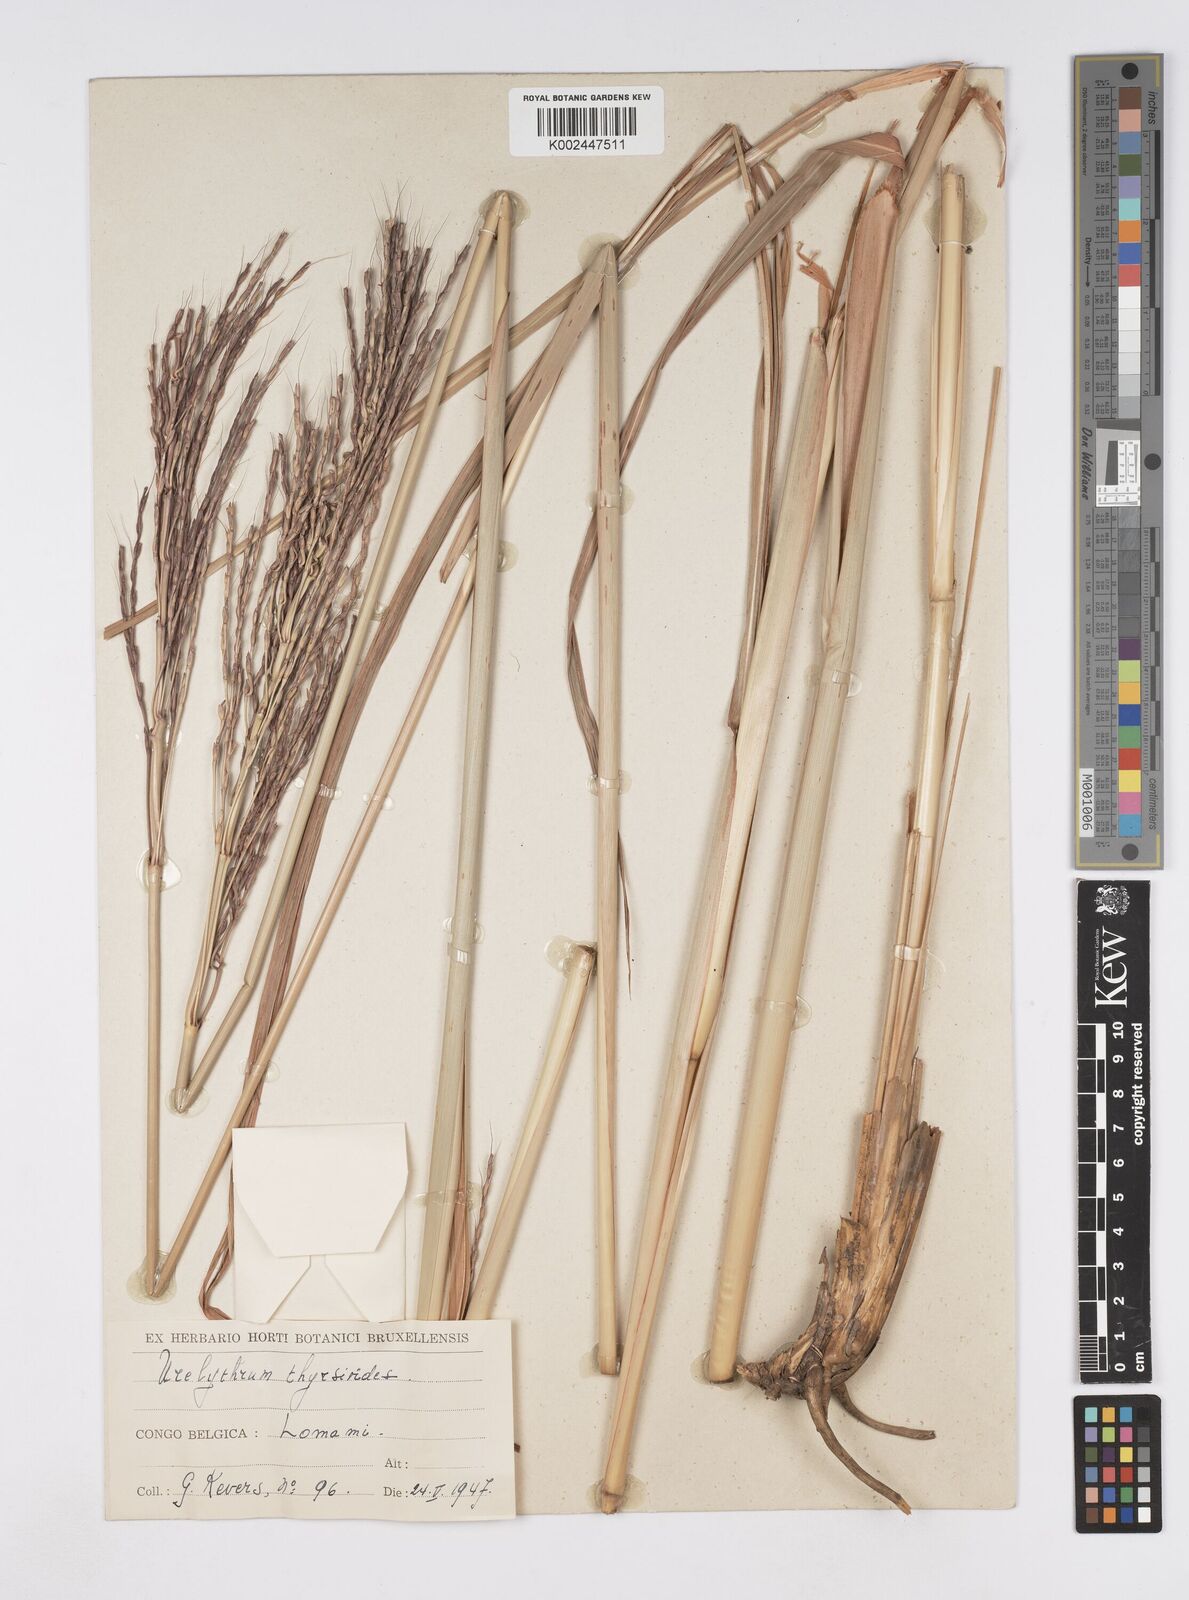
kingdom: Plantae
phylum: Tracheophyta
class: Liliopsida
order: Poales
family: Poaceae
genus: Urelytrum
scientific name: Urelytrum giganteum
